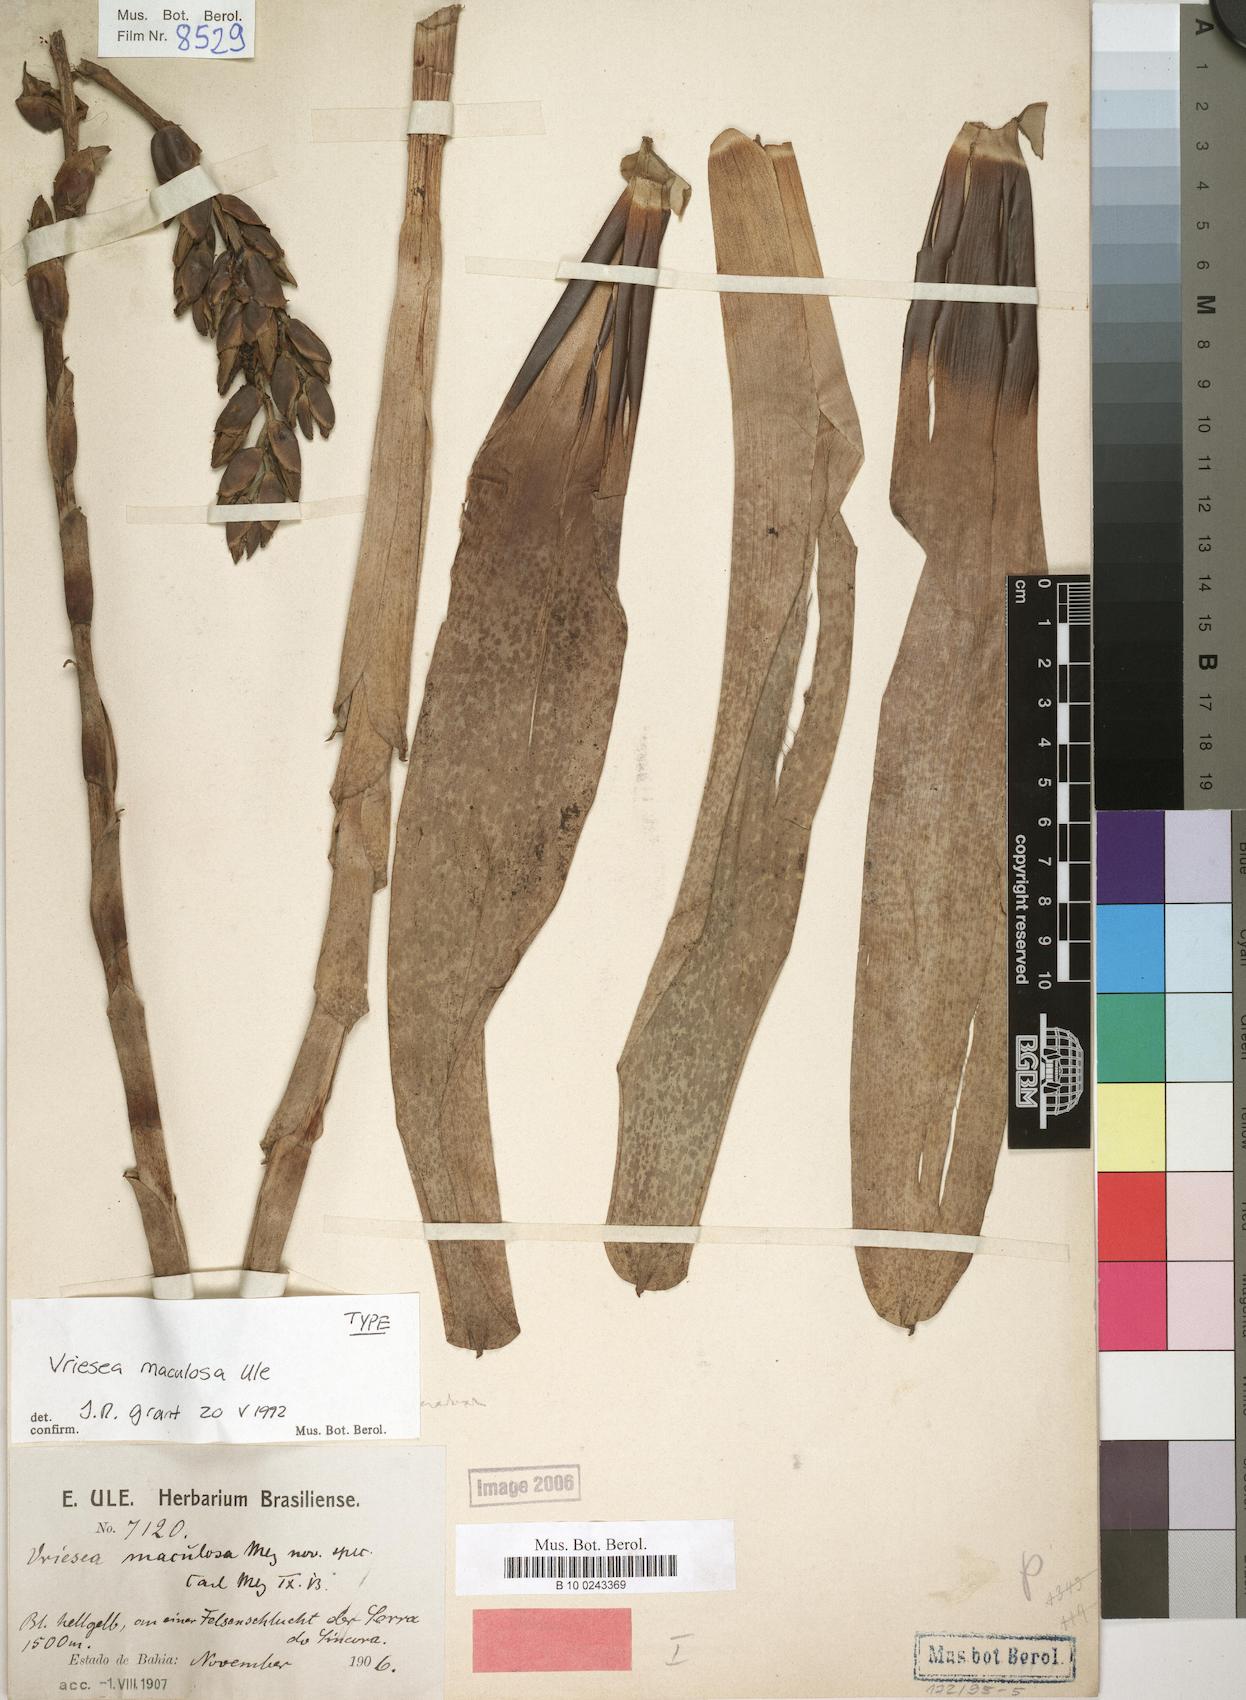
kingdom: Plantae
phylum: Tracheophyta
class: Liliopsida
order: Poales
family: Bromeliaceae
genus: Vriesea
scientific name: Vriesea maculosa
